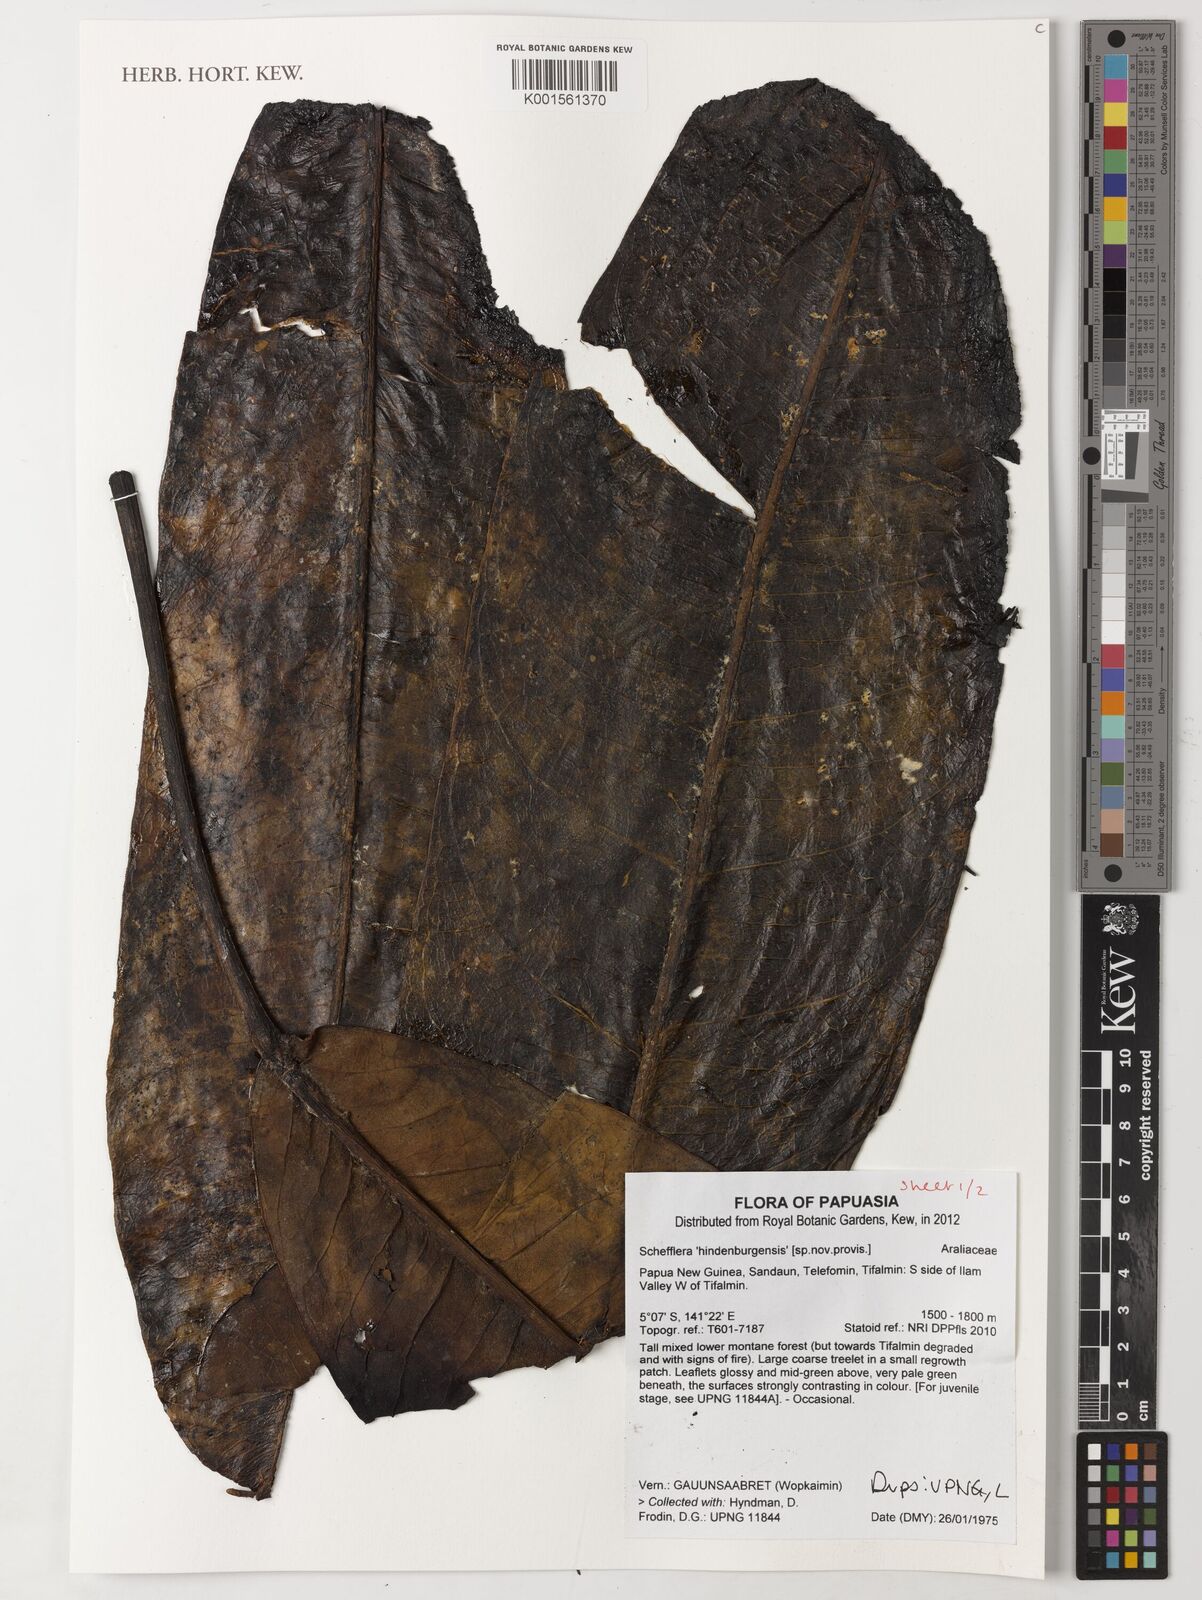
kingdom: Plantae
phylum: Tracheophyta
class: Magnoliopsida
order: Apiales
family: Araliaceae
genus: Schefflera
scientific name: Schefflera
